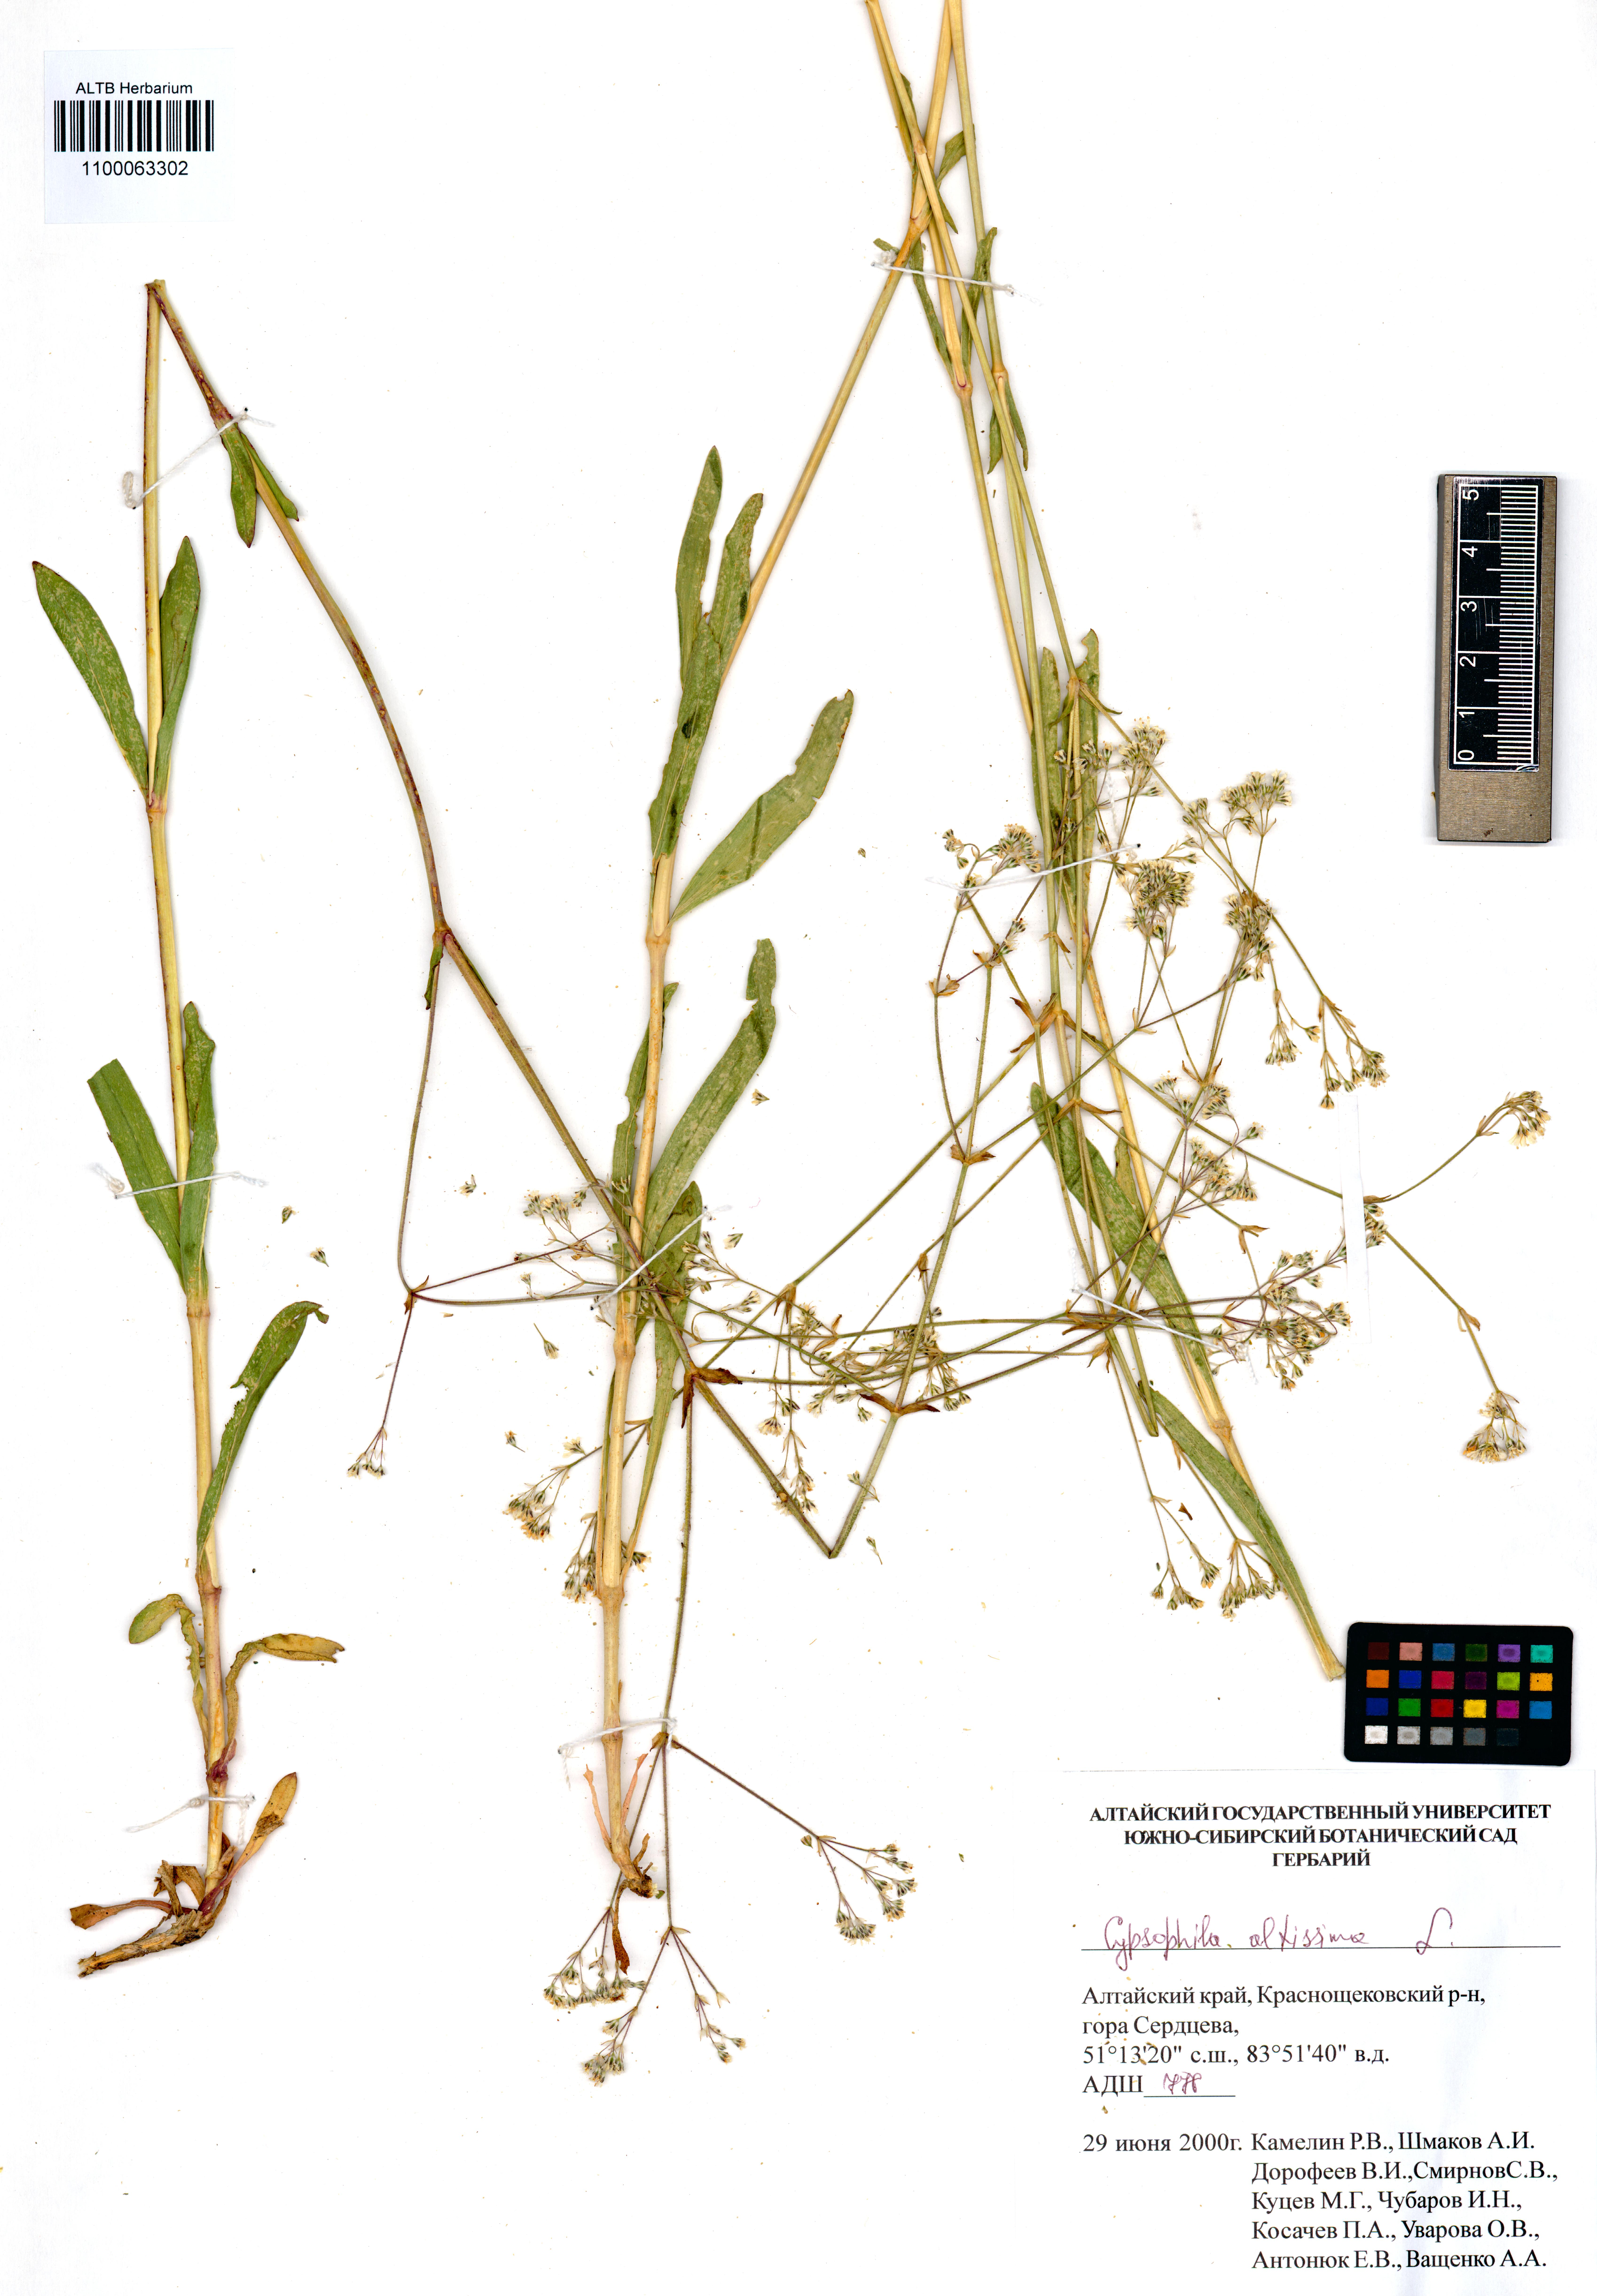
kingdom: Plantae
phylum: Tracheophyta
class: Magnoliopsida
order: Caryophyllales
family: Caryophyllaceae
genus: Gypsophila
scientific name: Gypsophila altissima
